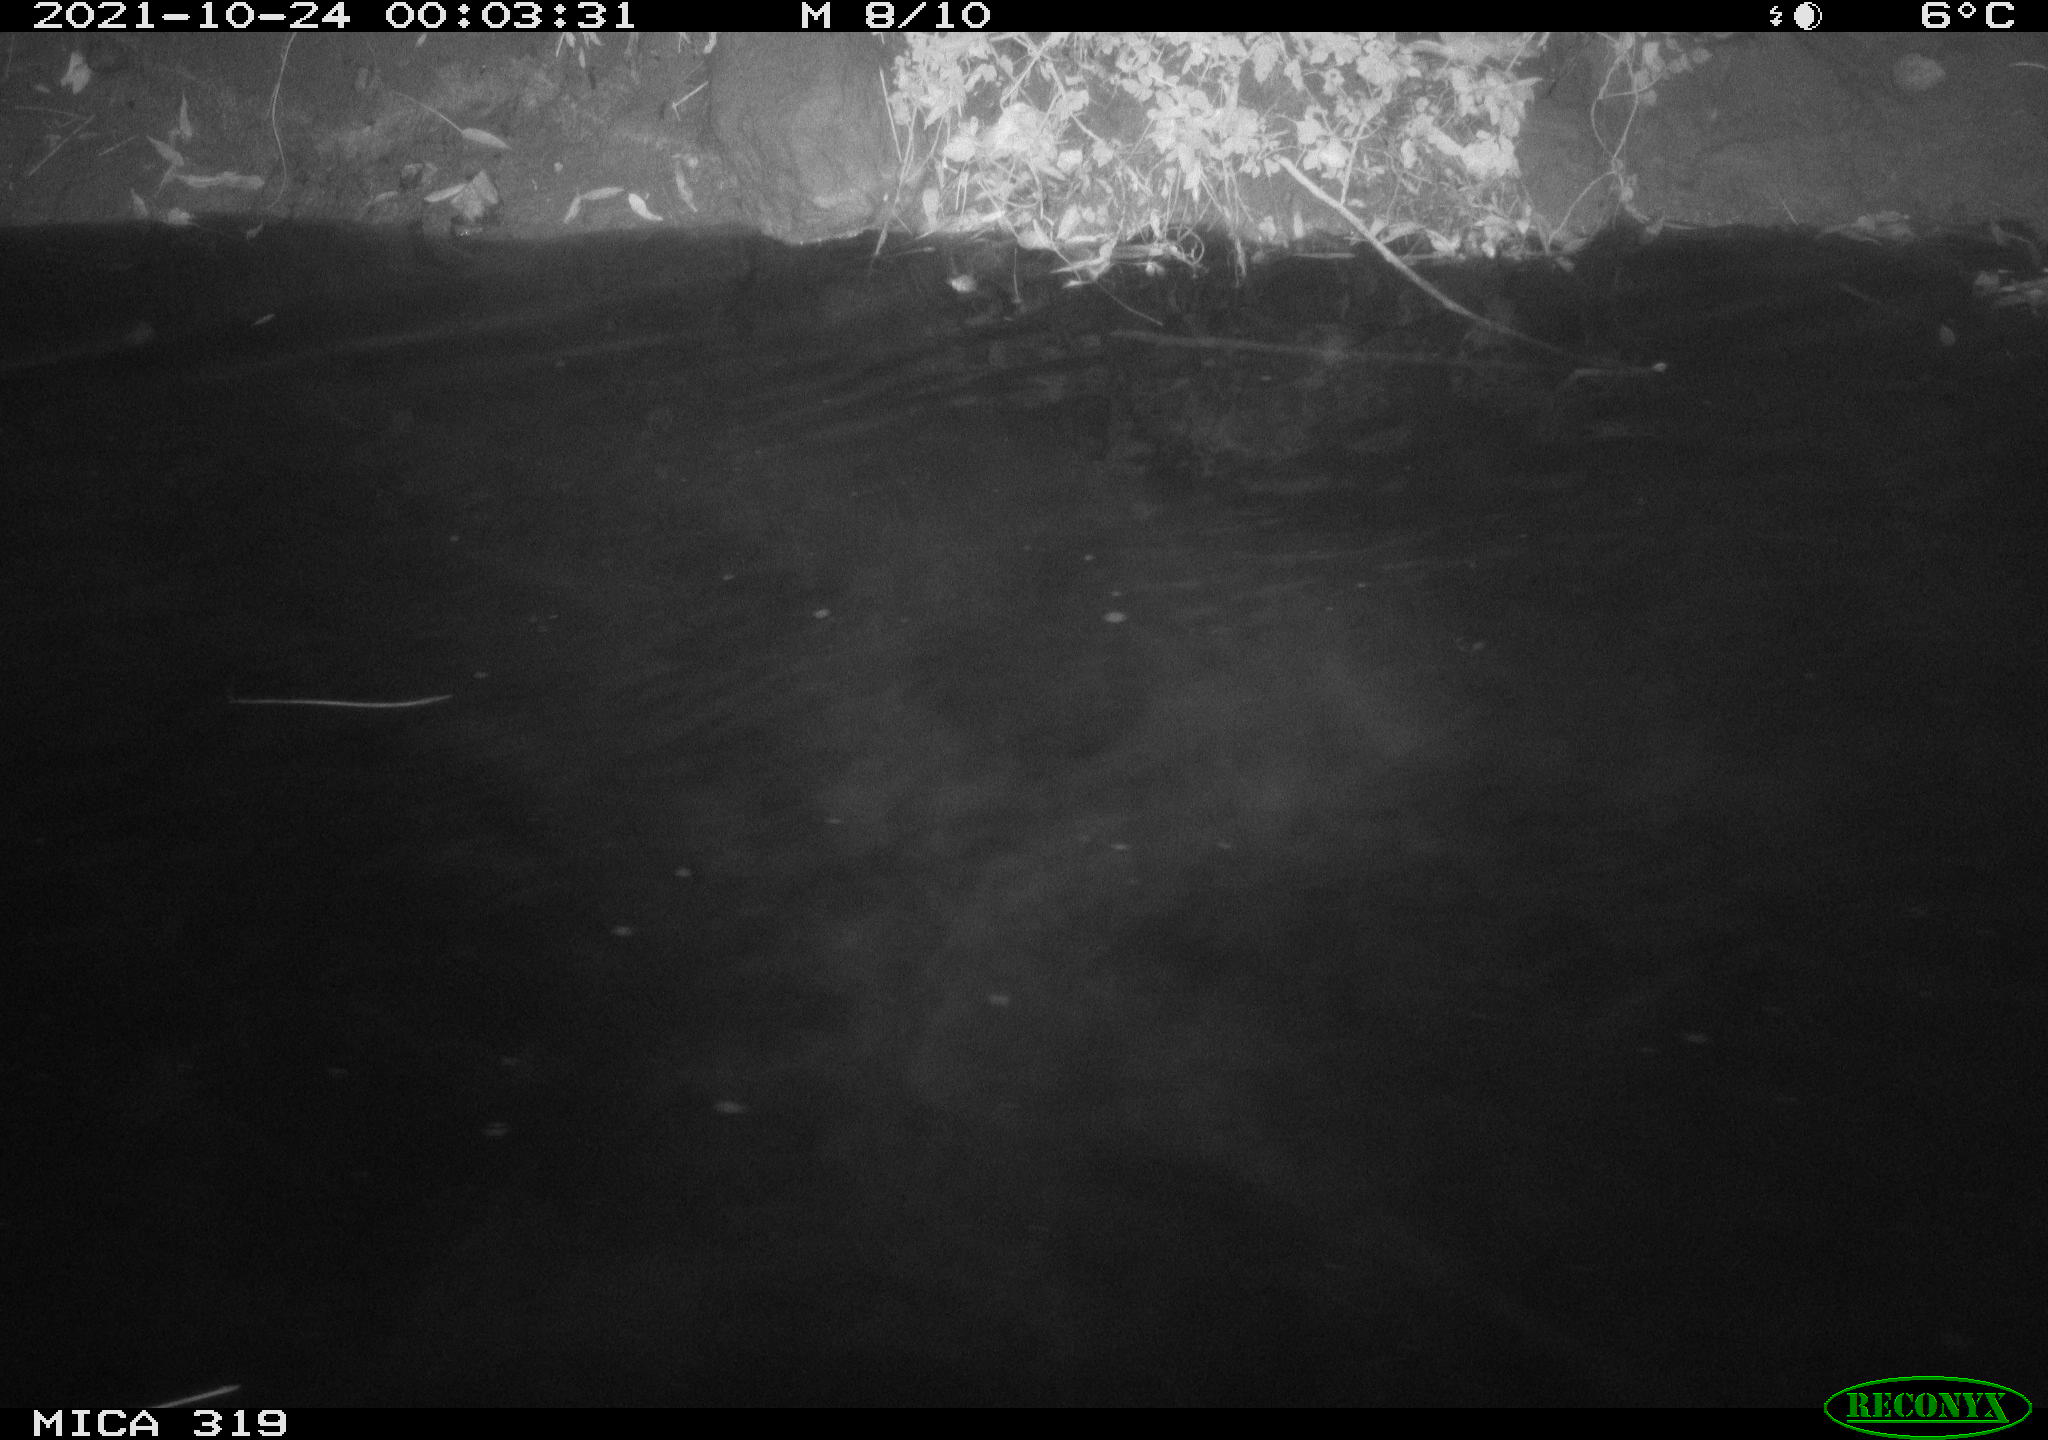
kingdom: Animalia
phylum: Chordata
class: Aves
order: Anseriformes
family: Anatidae
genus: Anas
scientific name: Anas platyrhynchos
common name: Mallard
